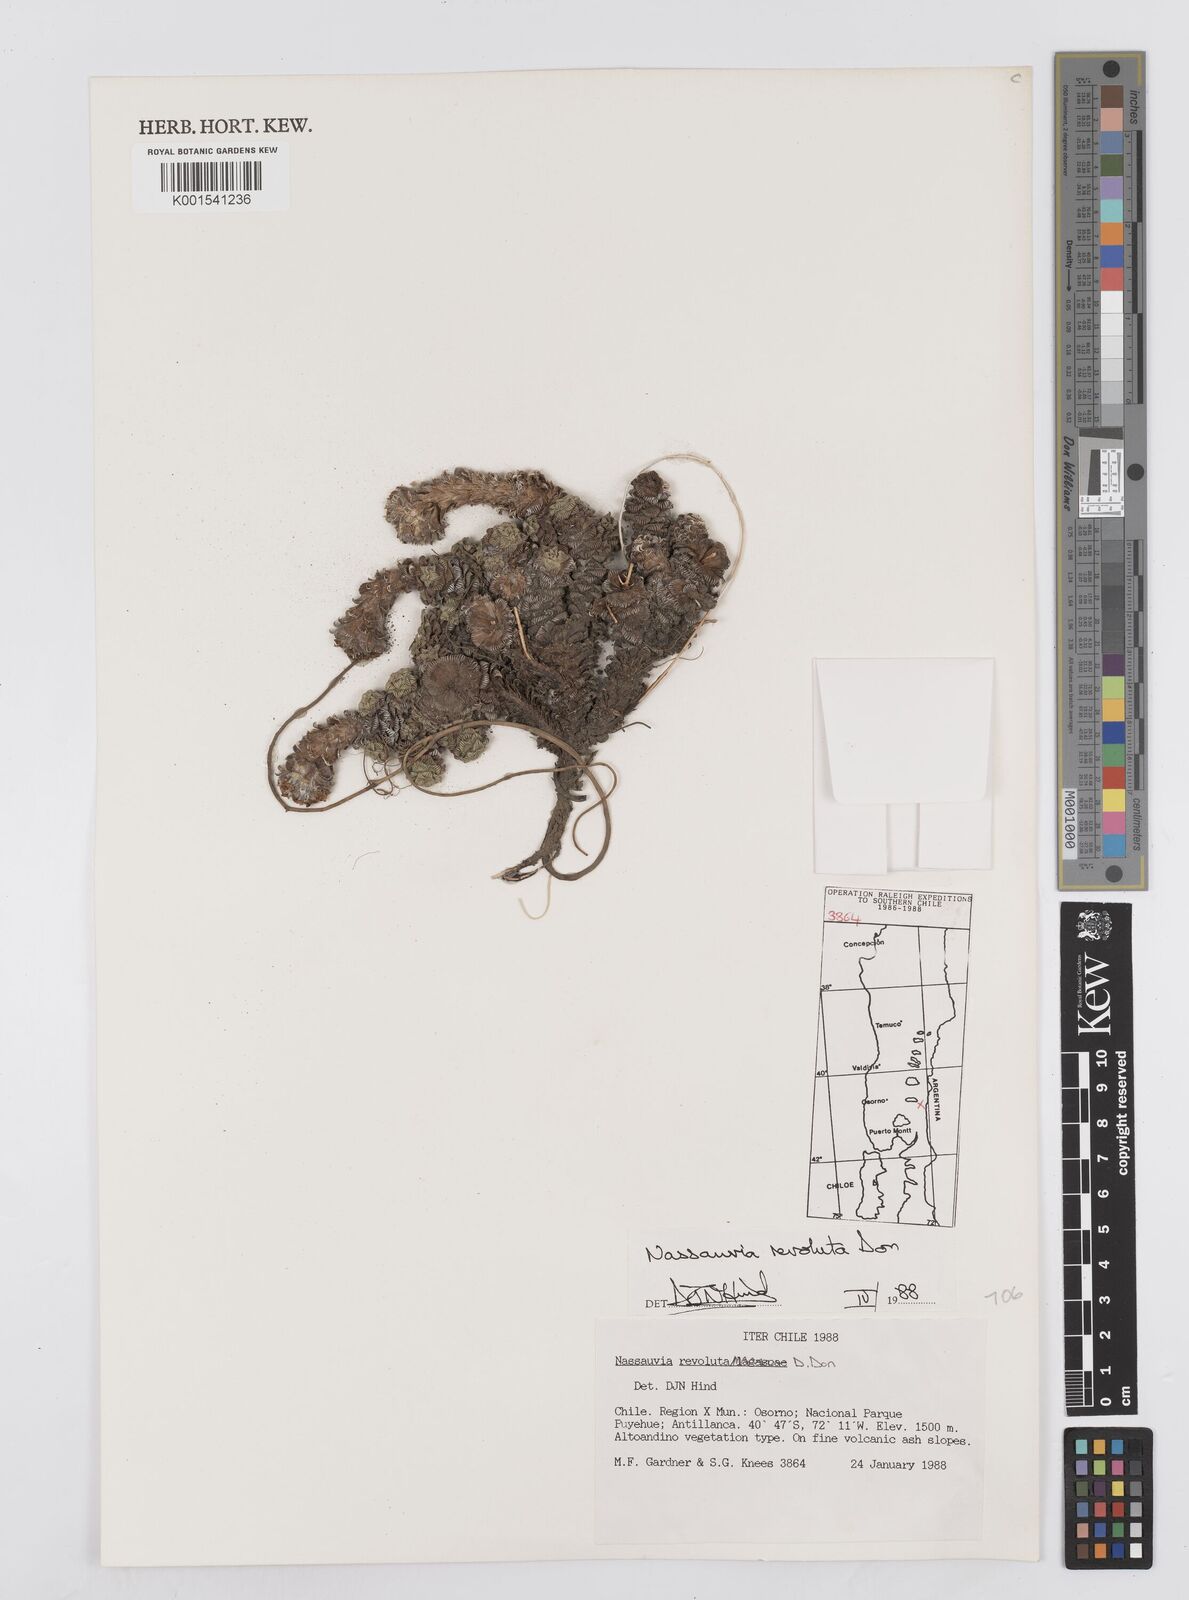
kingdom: Plantae
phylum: Tracheophyta
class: Magnoliopsida
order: Asterales
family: Asteraceae
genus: Nassauvia
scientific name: Nassauvia revoluta
